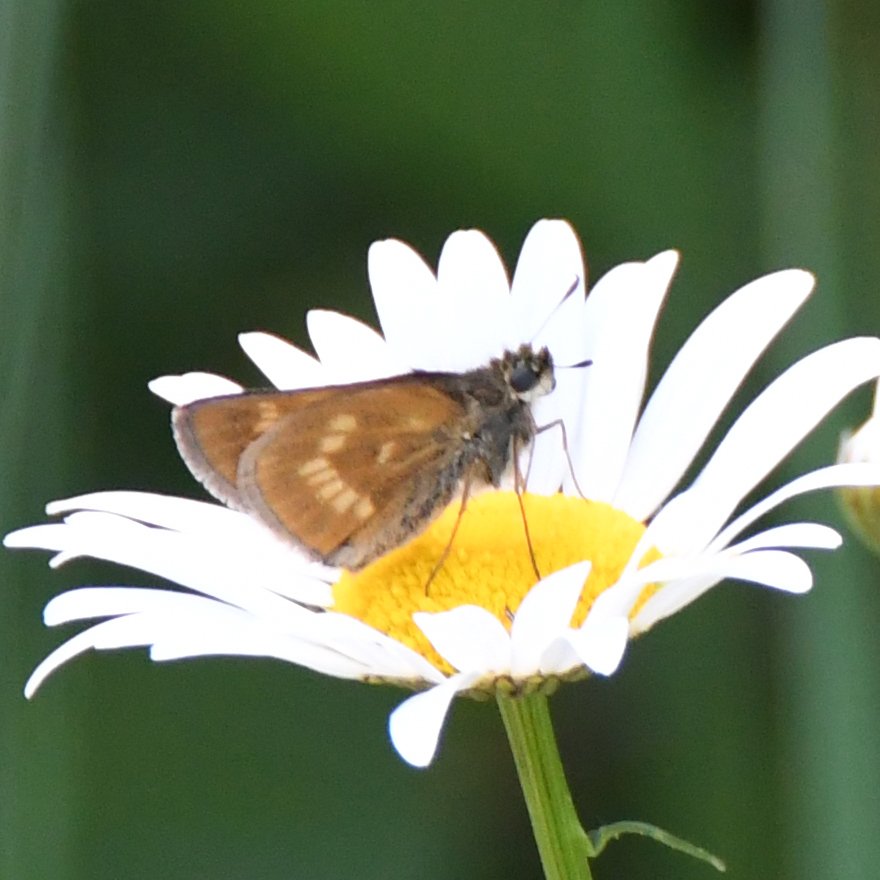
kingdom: Animalia
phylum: Arthropoda
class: Insecta
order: Lepidoptera
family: Hesperiidae
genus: Polites
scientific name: Polites
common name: Long Dash Skipper
